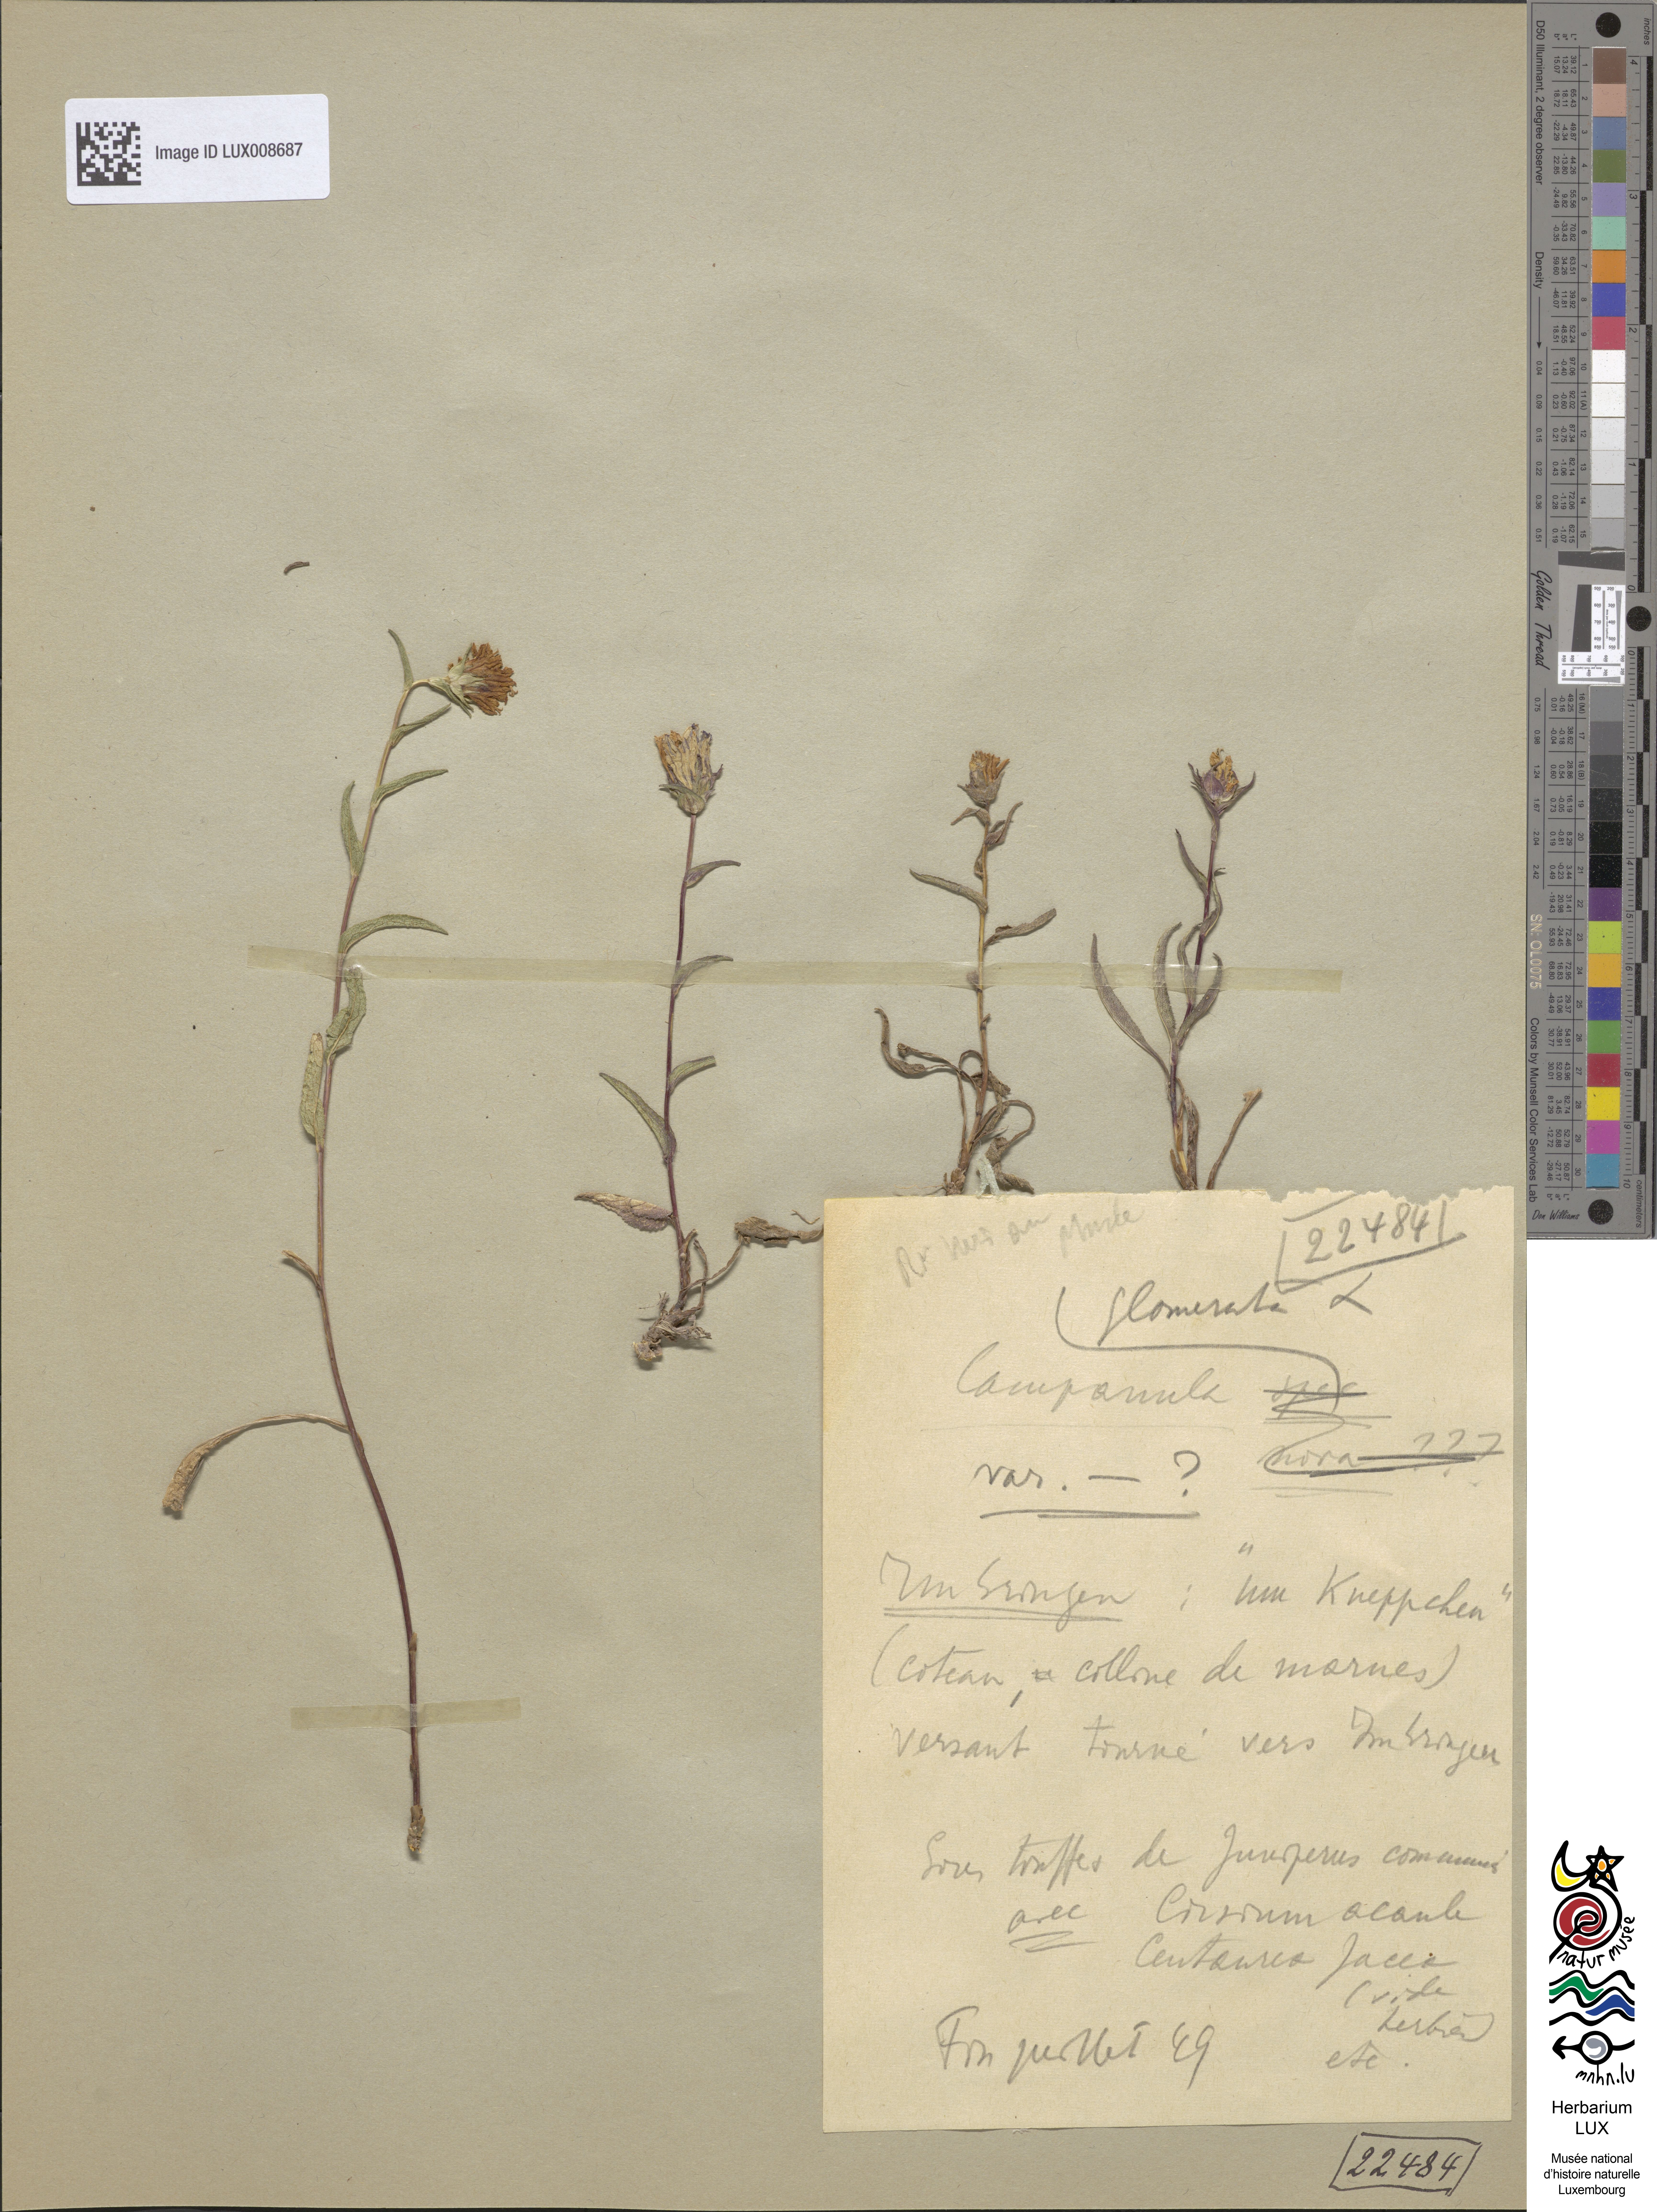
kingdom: Plantae
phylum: Tracheophyta
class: Magnoliopsida
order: Asterales
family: Campanulaceae
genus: Campanula
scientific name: Campanula glomerata
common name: Clustered bellflower
